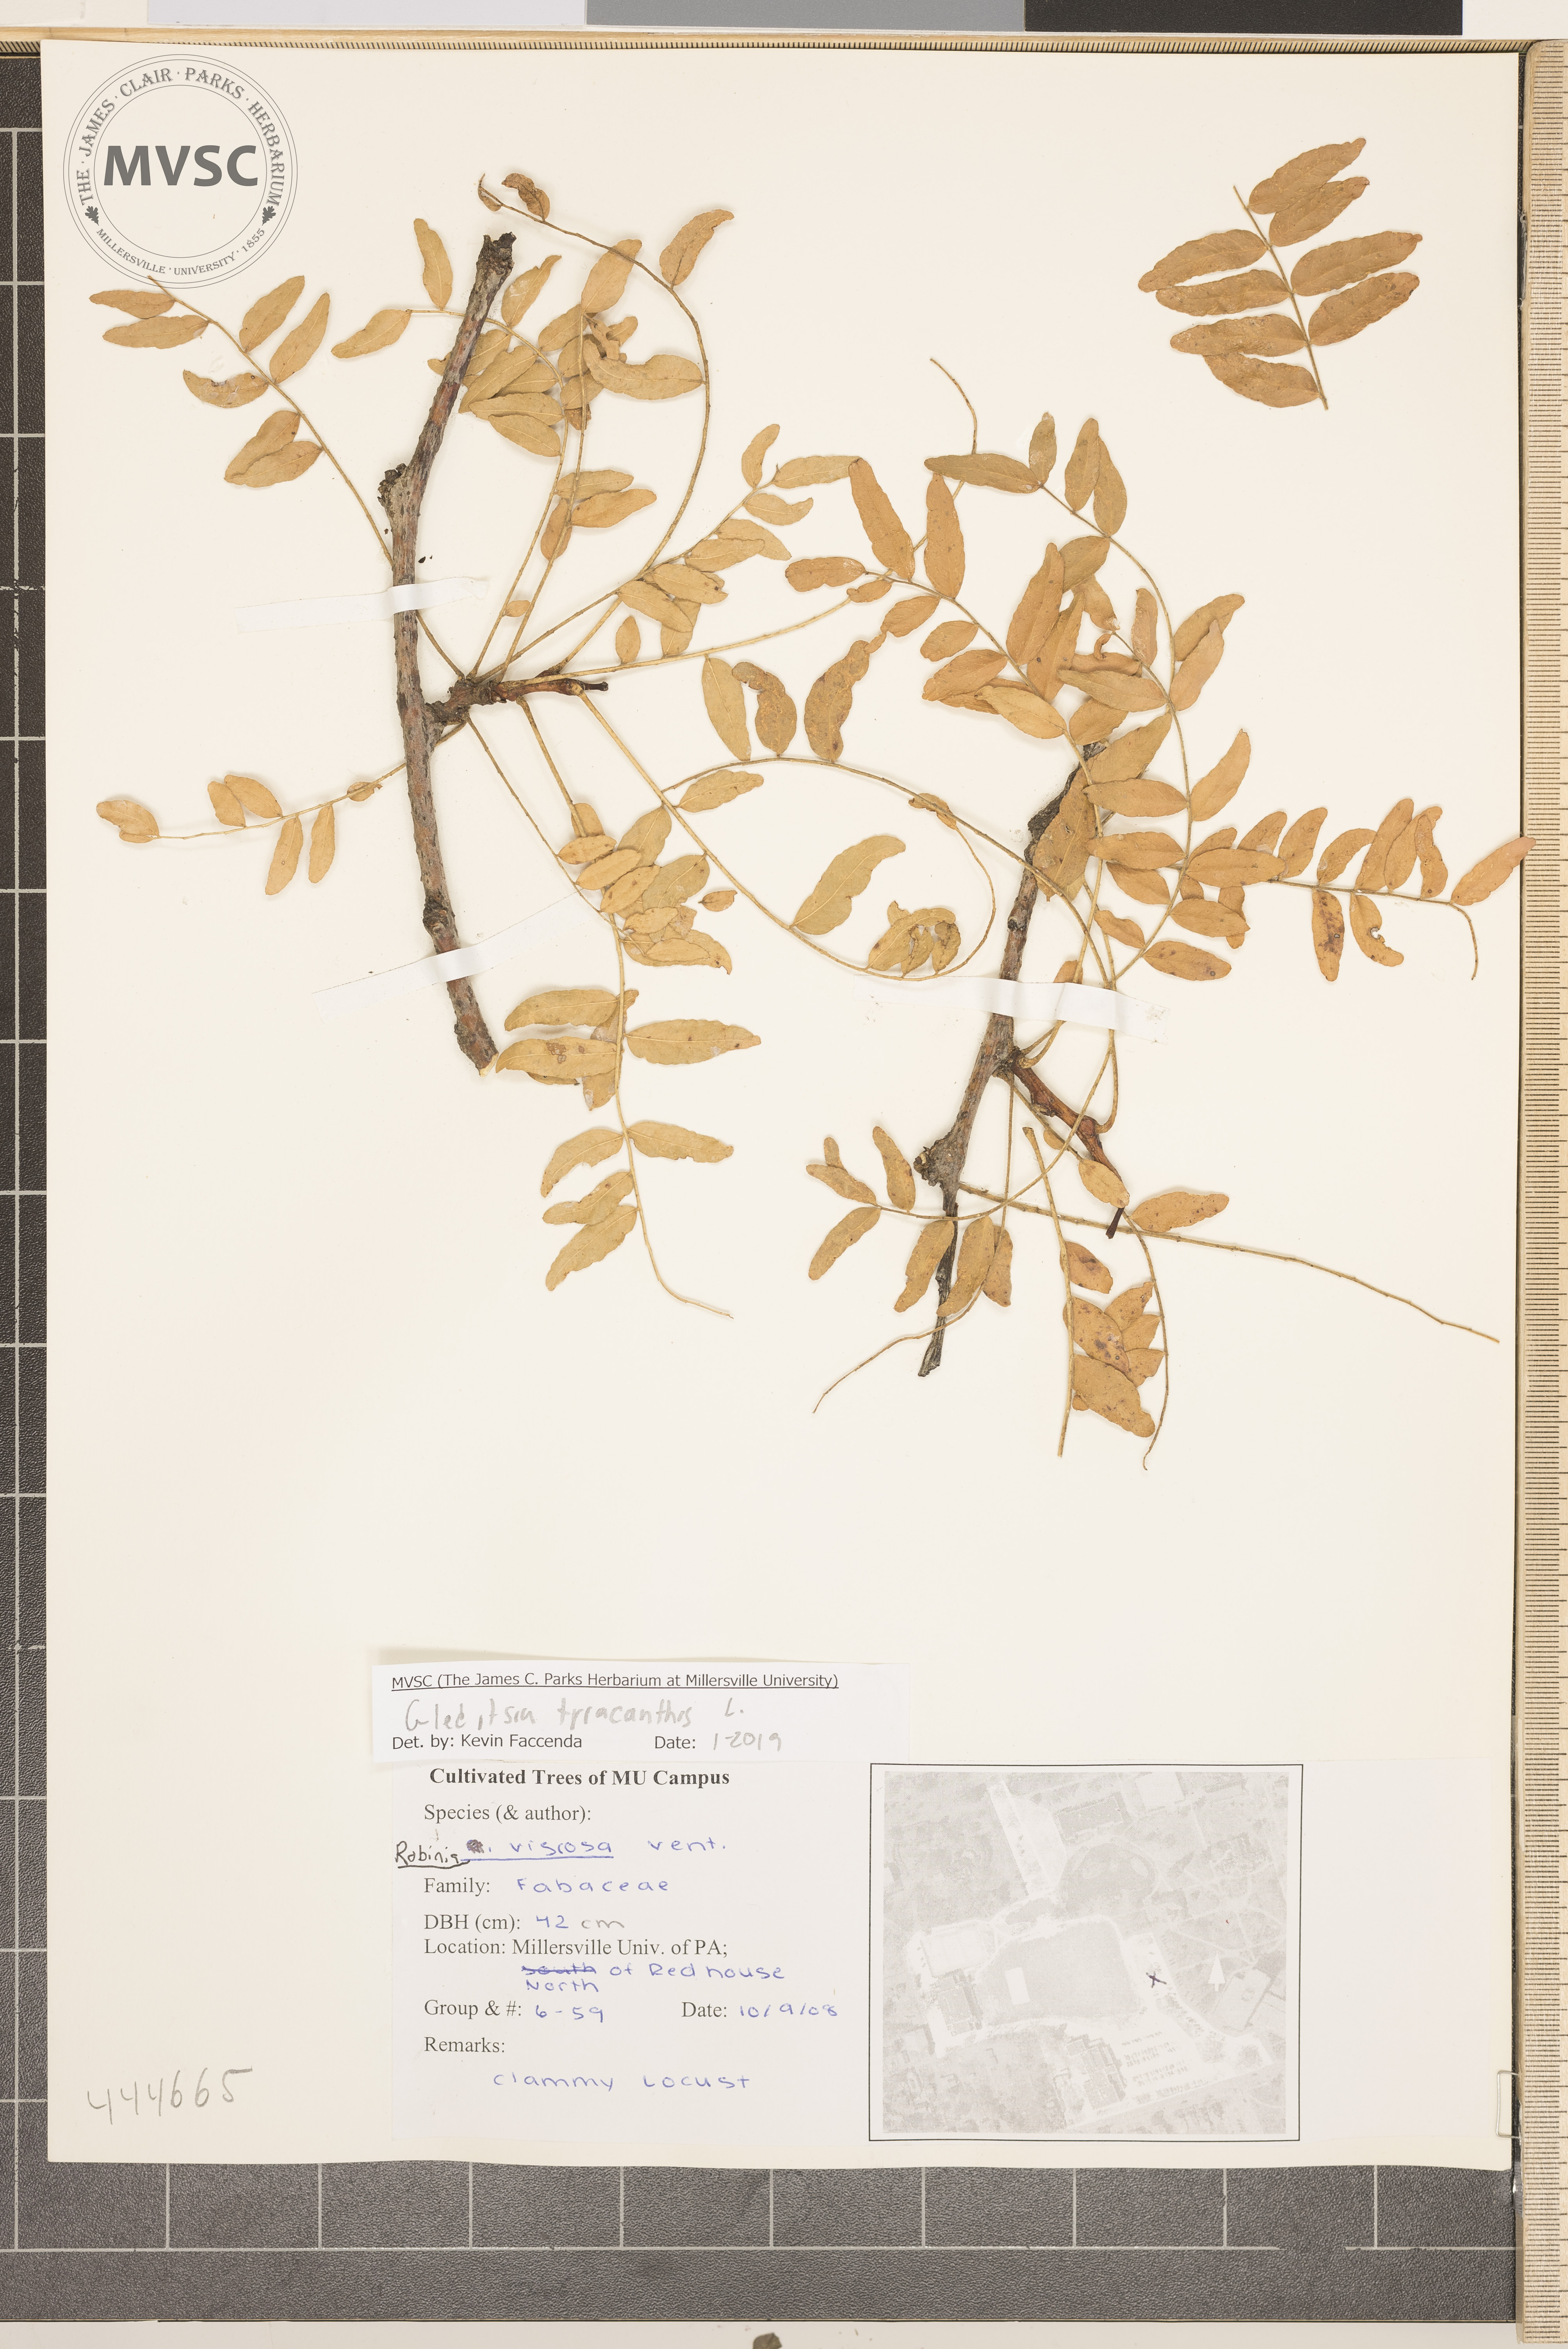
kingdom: Plantae
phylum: Tracheophyta
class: Magnoliopsida
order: Fabales
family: Fabaceae
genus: Gleditsia
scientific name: Gleditsia triacanthos
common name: Common honeylocust
